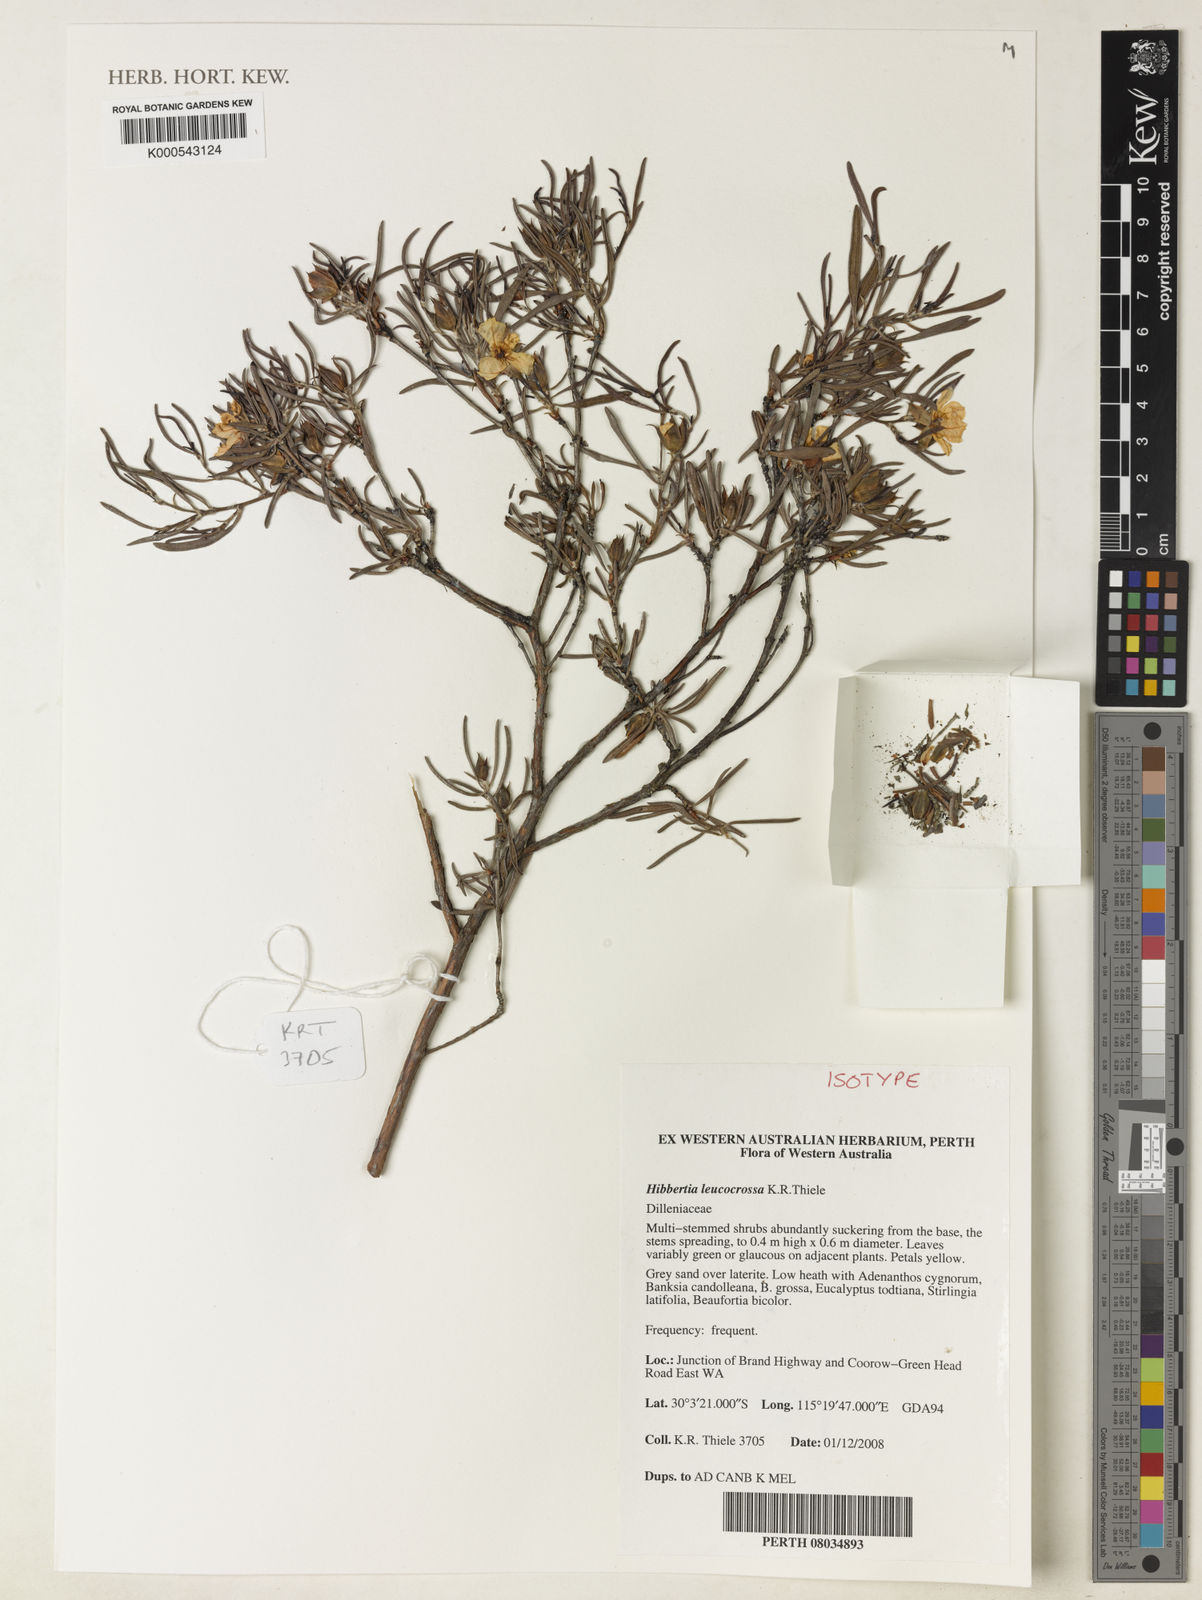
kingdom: Plantae
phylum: Tracheophyta
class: Magnoliopsida
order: Dilleniales
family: Dilleniaceae
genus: Hibbertia
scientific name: Hibbertia leucocrossa
